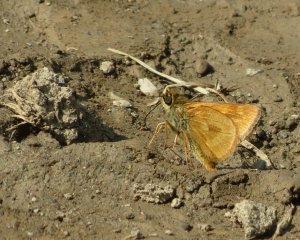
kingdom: Animalia
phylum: Arthropoda
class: Insecta
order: Lepidoptera
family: Hesperiidae
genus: Hesperia
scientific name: Hesperia sassacus
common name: Sassacus Skipper
